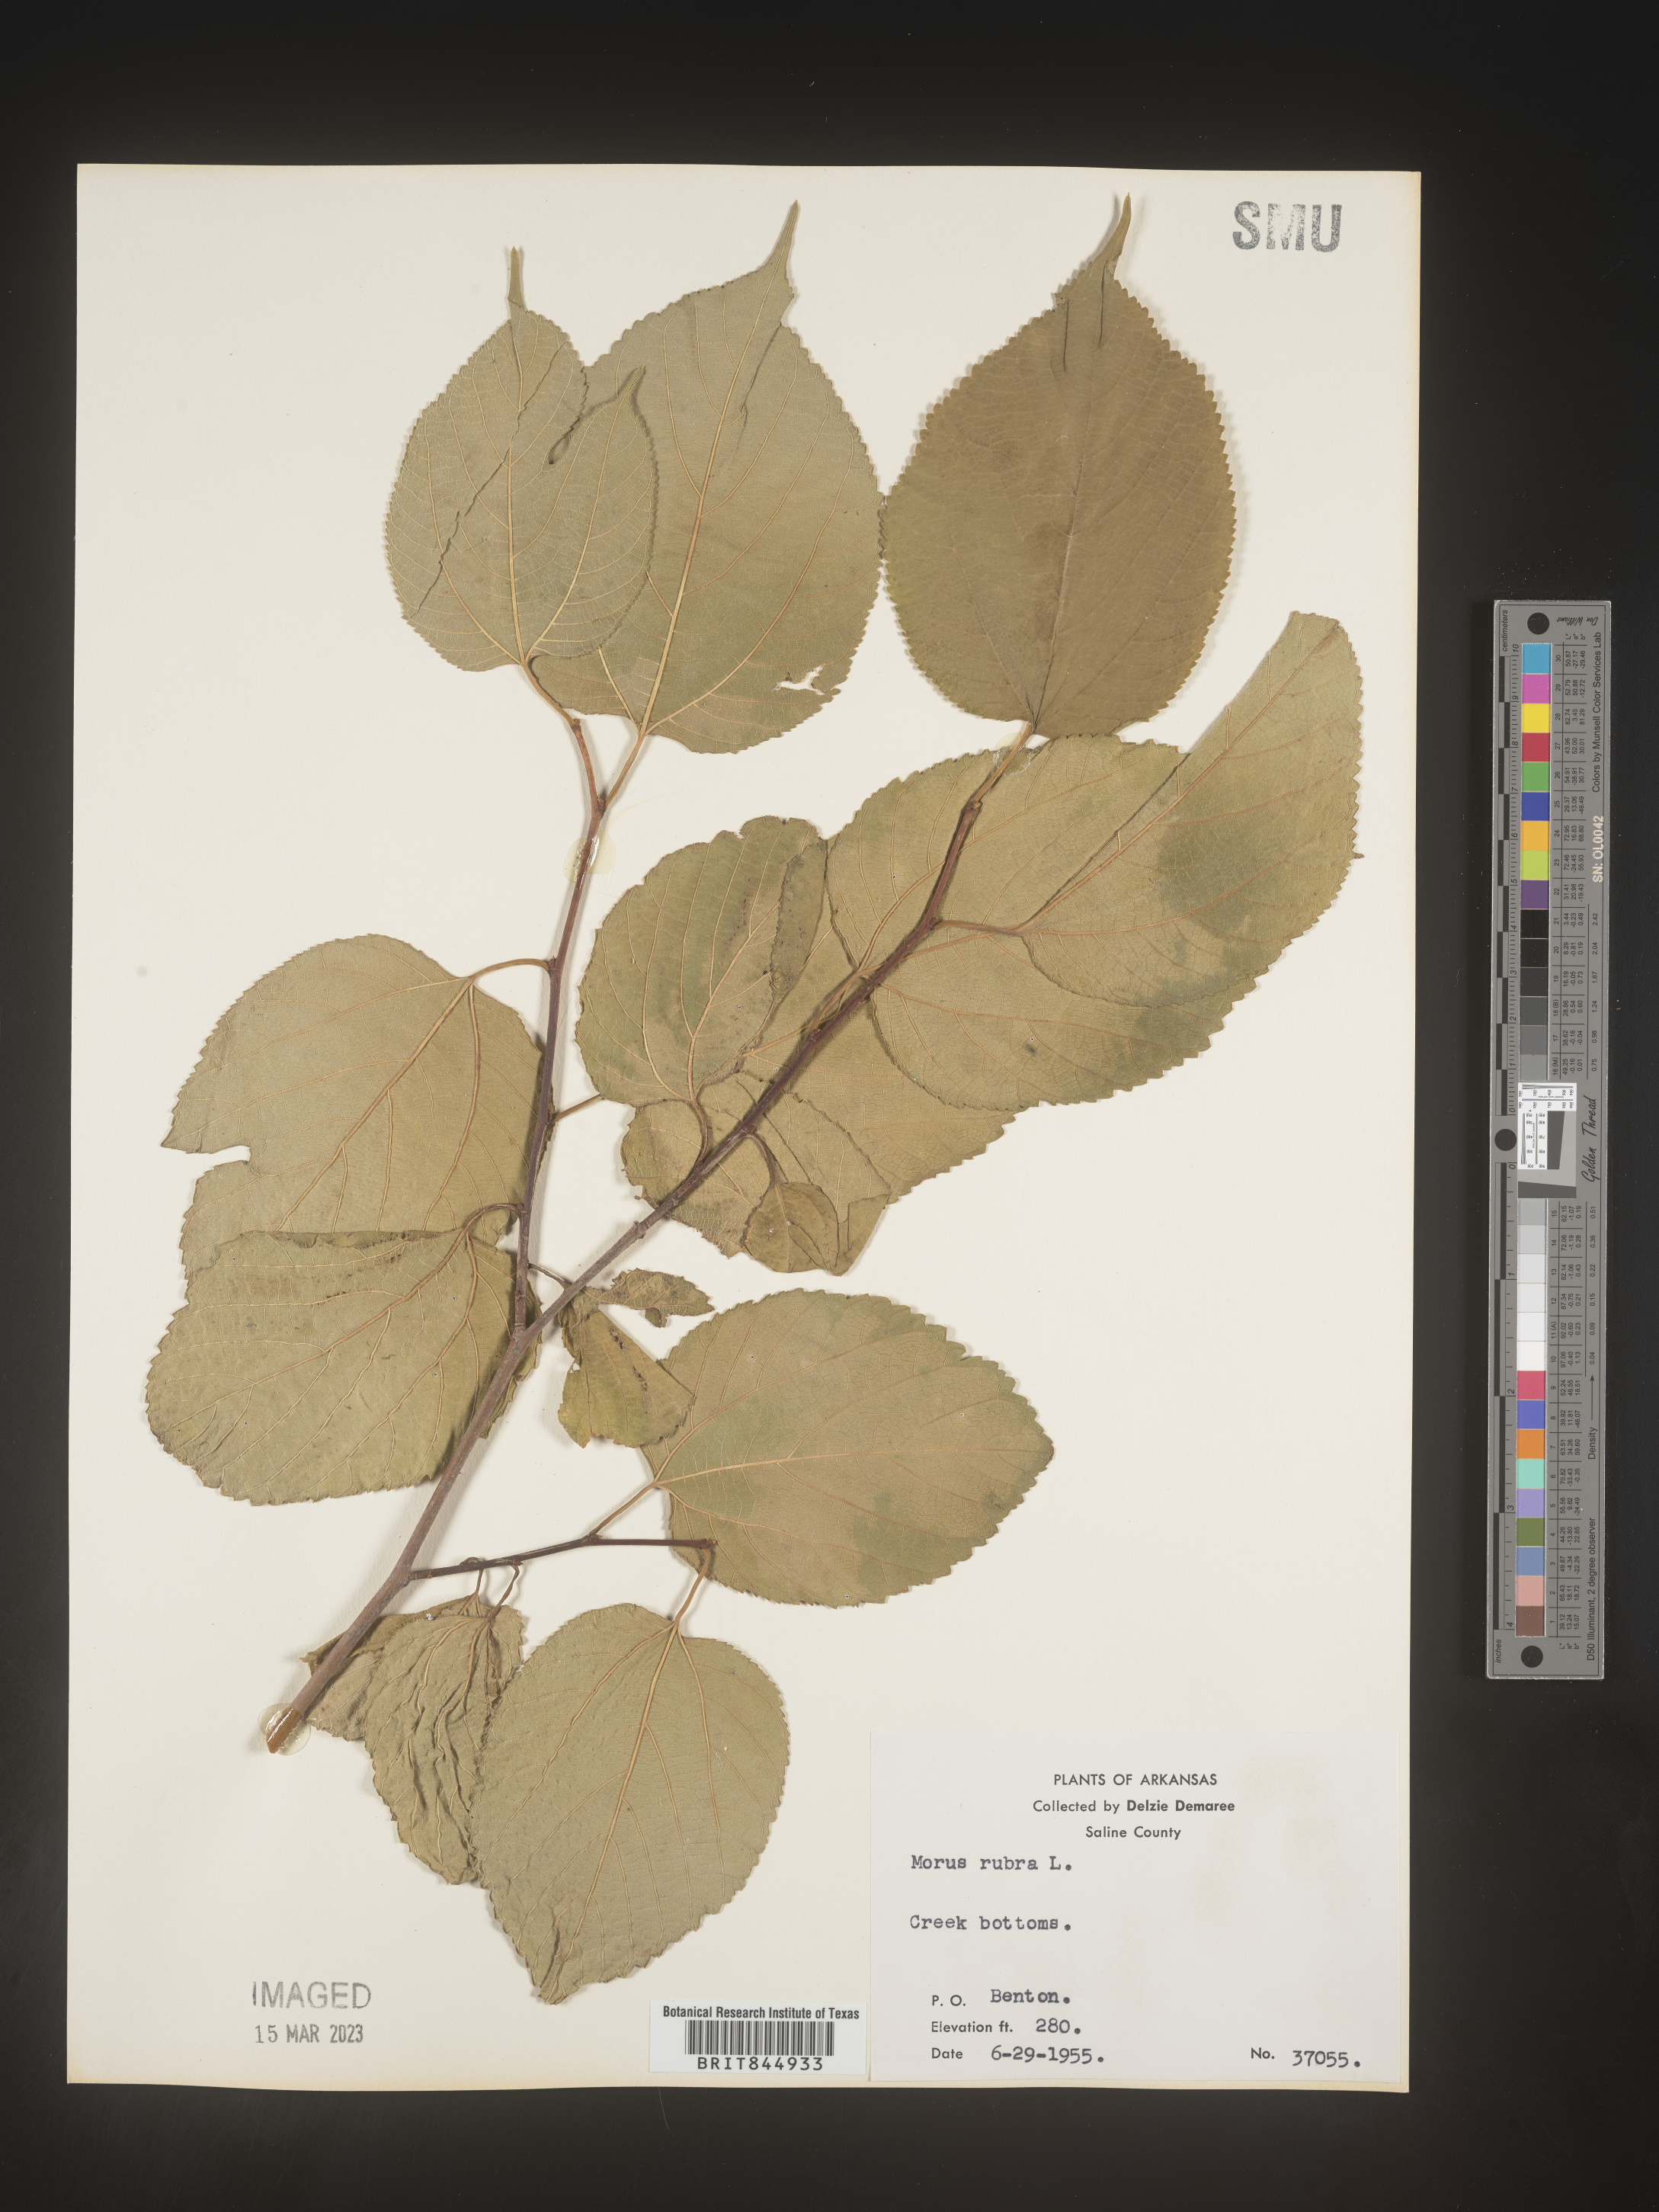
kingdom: Plantae
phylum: Tracheophyta
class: Magnoliopsida
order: Rosales
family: Moraceae
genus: Morus
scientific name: Morus rubra
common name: Red mulberry
